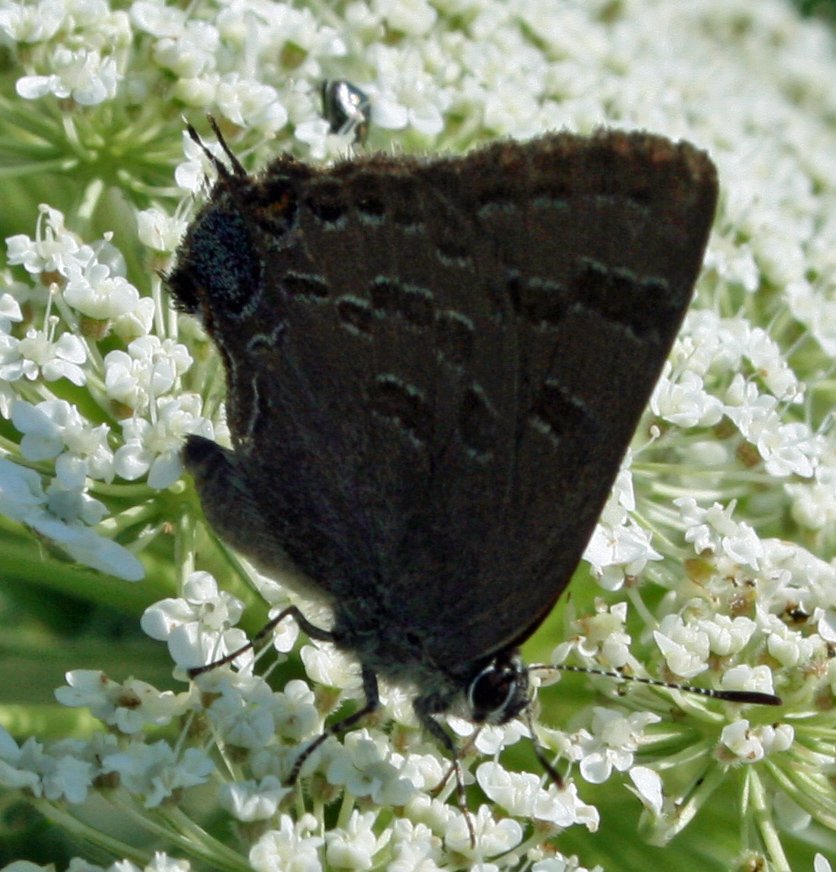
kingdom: Animalia
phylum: Arthropoda
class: Insecta
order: Lepidoptera
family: Lycaenidae
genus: Strymon
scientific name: Strymon caryaevorus
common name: Hickory Hairstreak
